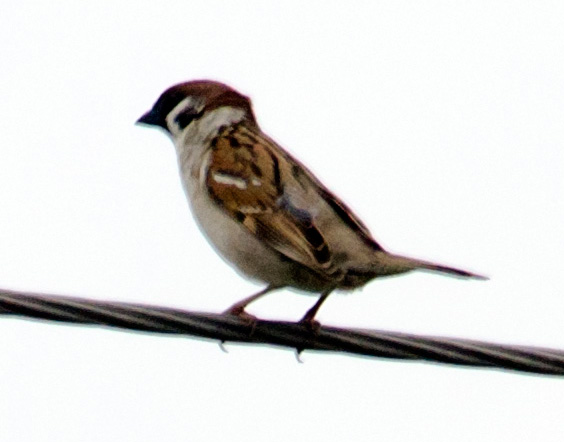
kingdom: Animalia
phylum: Chordata
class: Aves
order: Passeriformes
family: Passeridae
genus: Passer
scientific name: Passer montanus
